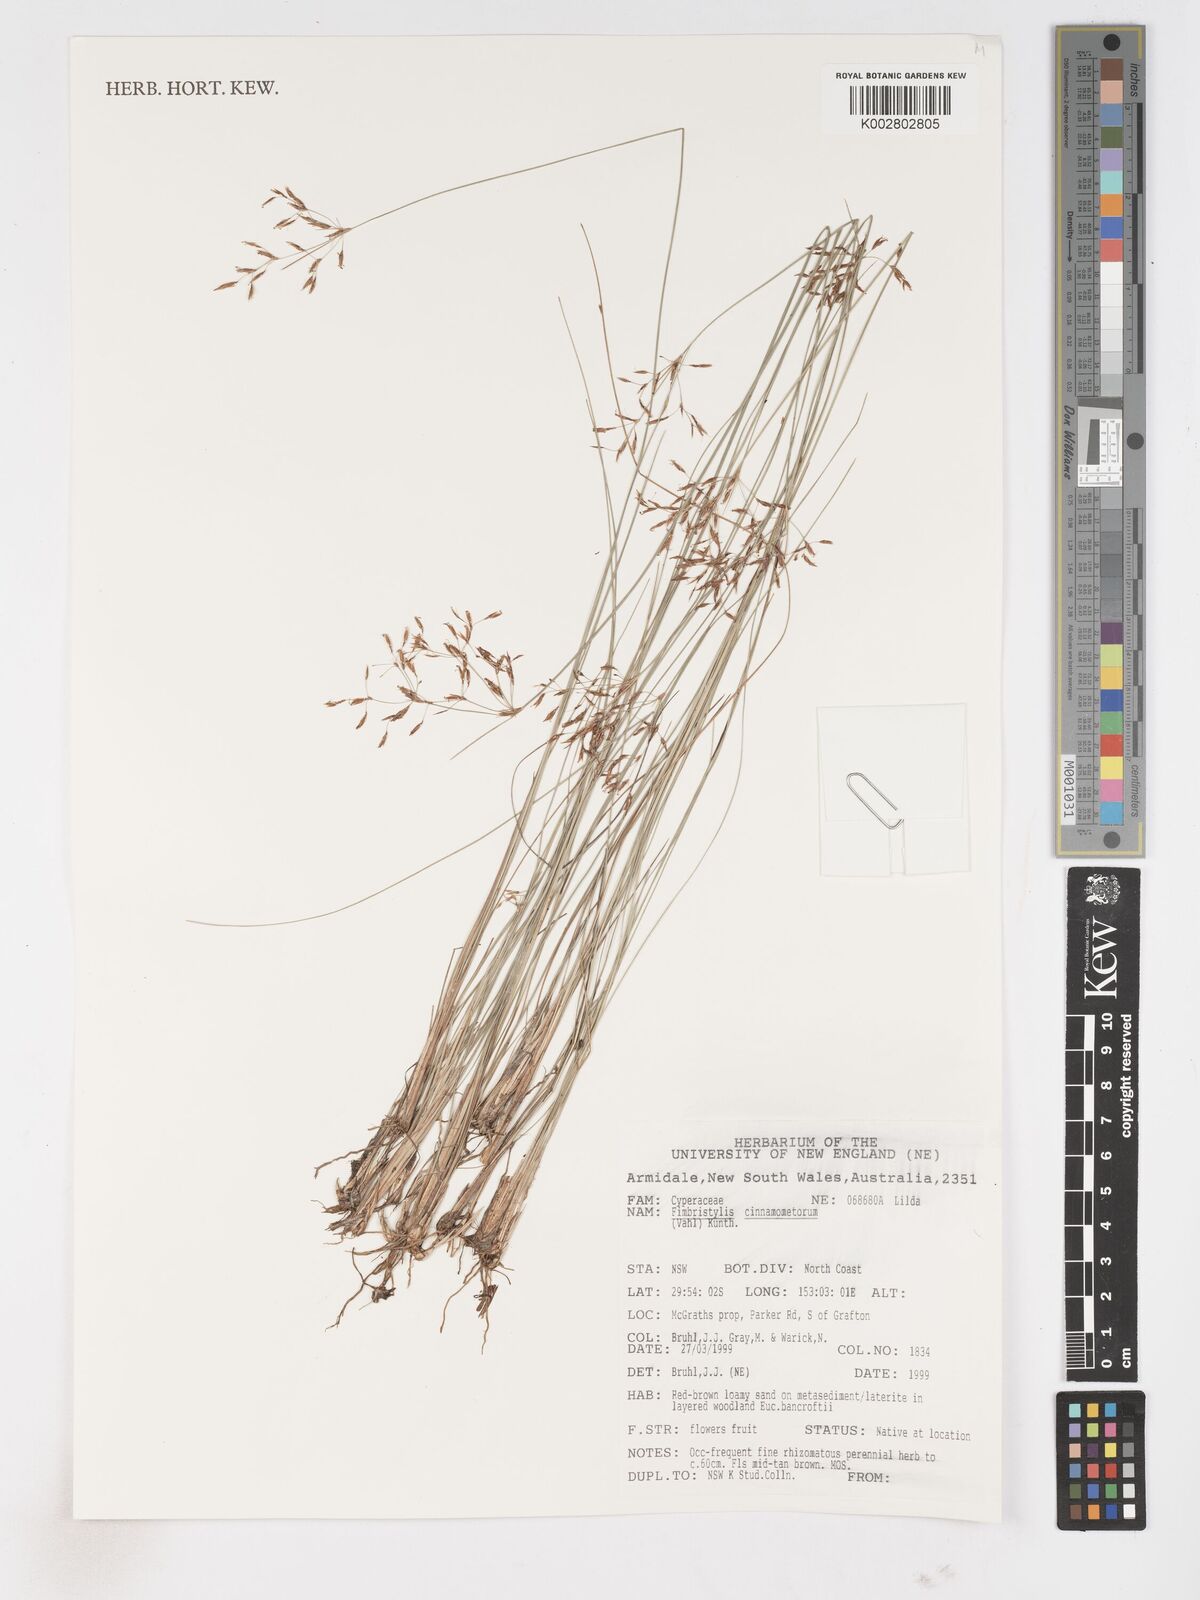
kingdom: Plantae
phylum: Tracheophyta
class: Liliopsida
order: Poales
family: Cyperaceae
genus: Fimbristylis
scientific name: Fimbristylis cinnamometorum
